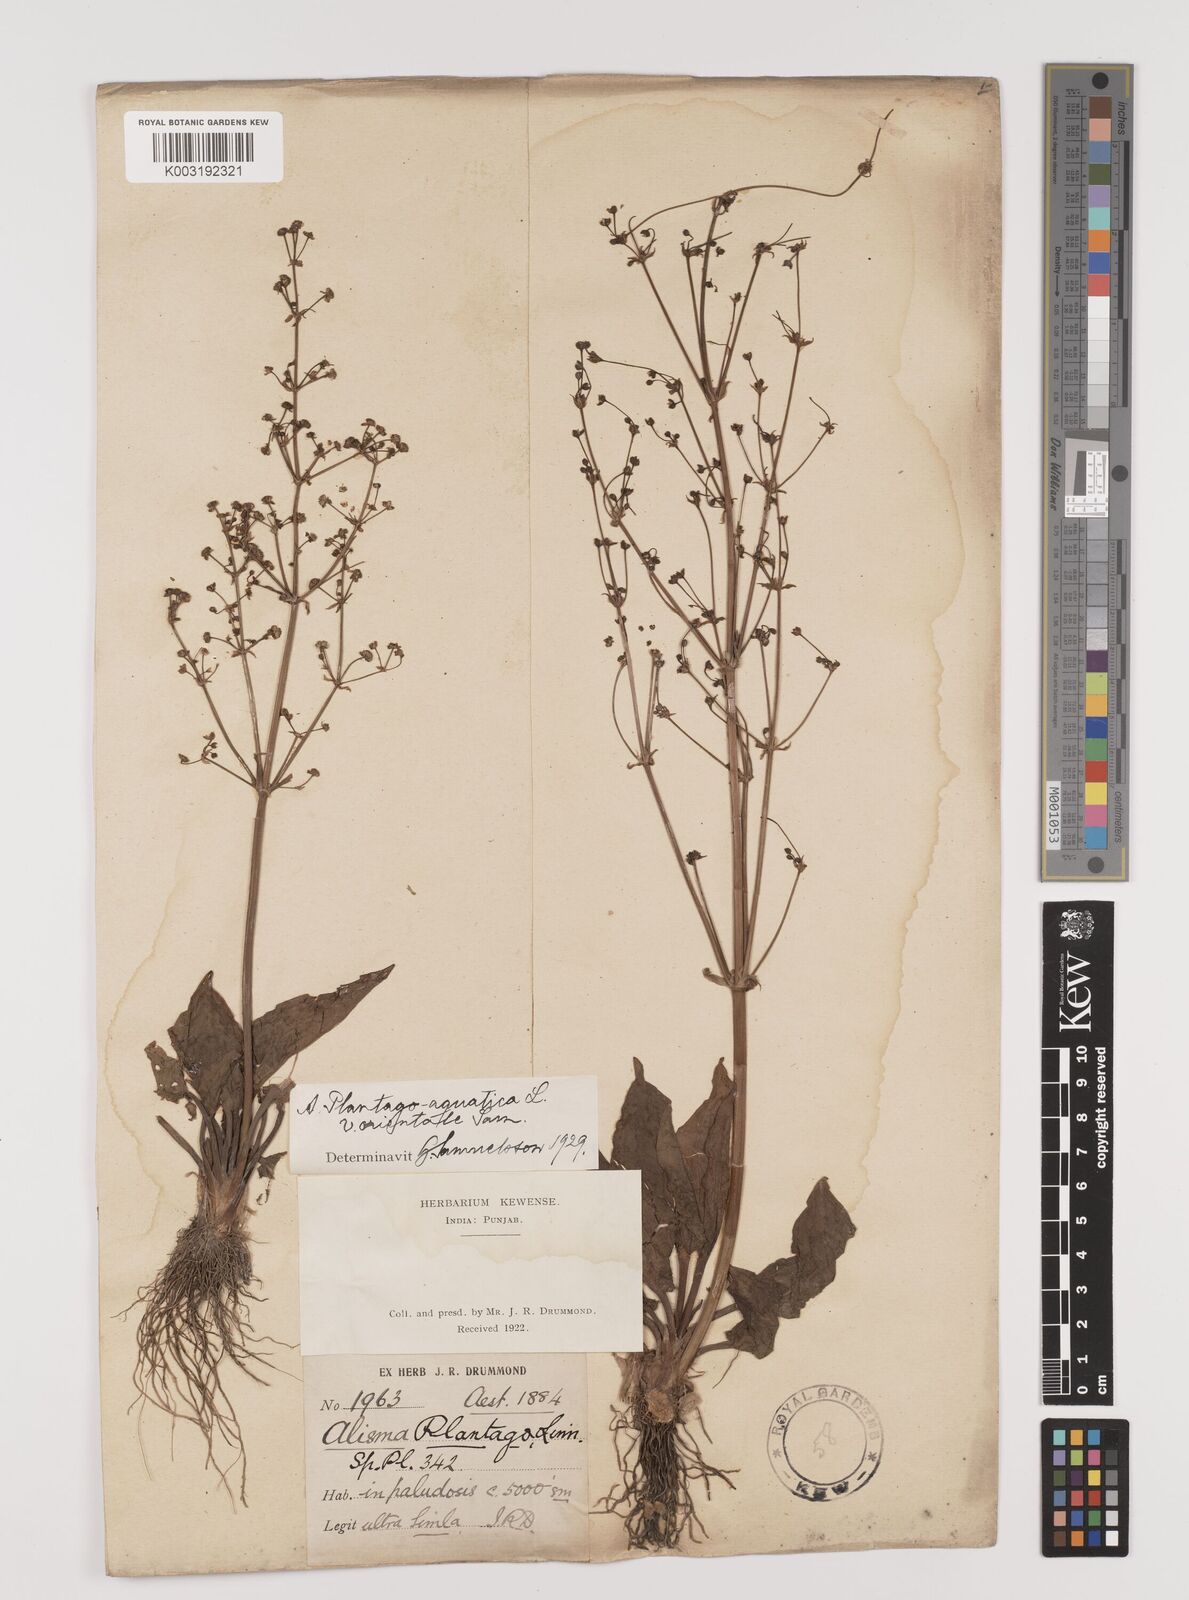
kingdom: Plantae
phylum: Tracheophyta
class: Liliopsida
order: Alismatales
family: Alismataceae
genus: Alisma
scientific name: Alisma plantago-aquatica
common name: Water-plantain
